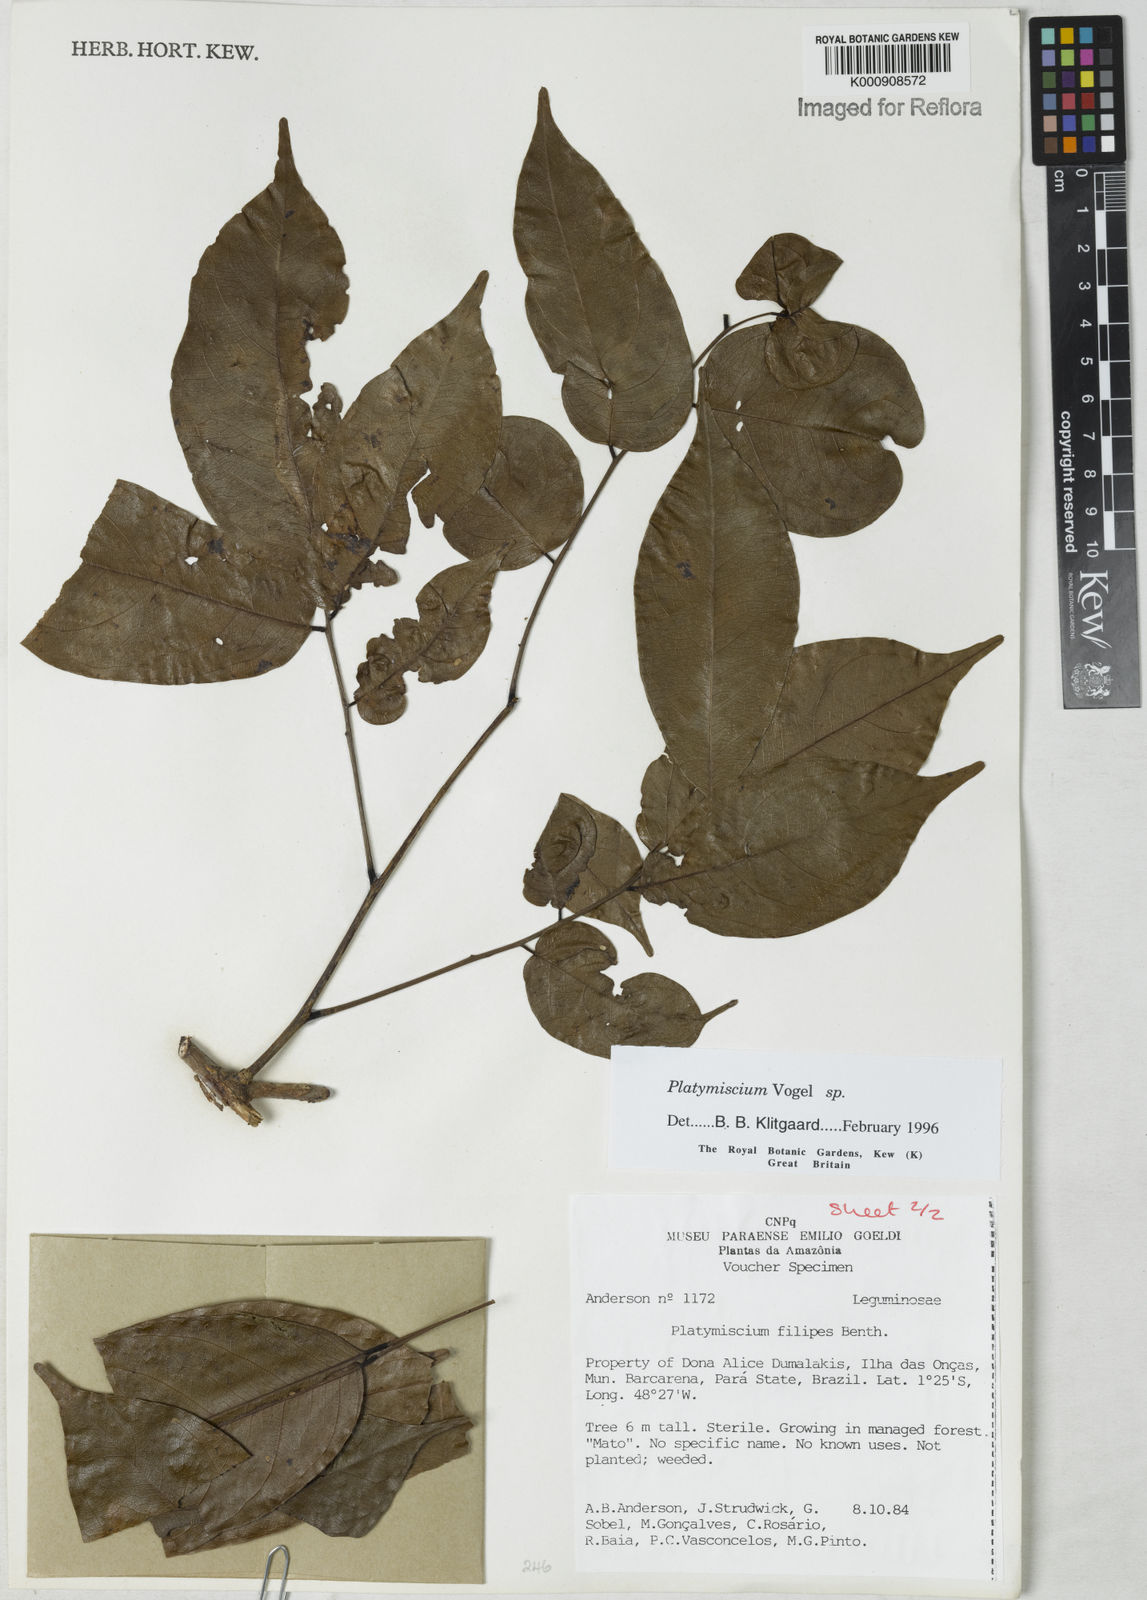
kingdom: Plantae
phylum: Tracheophyta
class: Magnoliopsida
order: Fabales
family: Fabaceae
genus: Platymiscium
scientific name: Platymiscium
